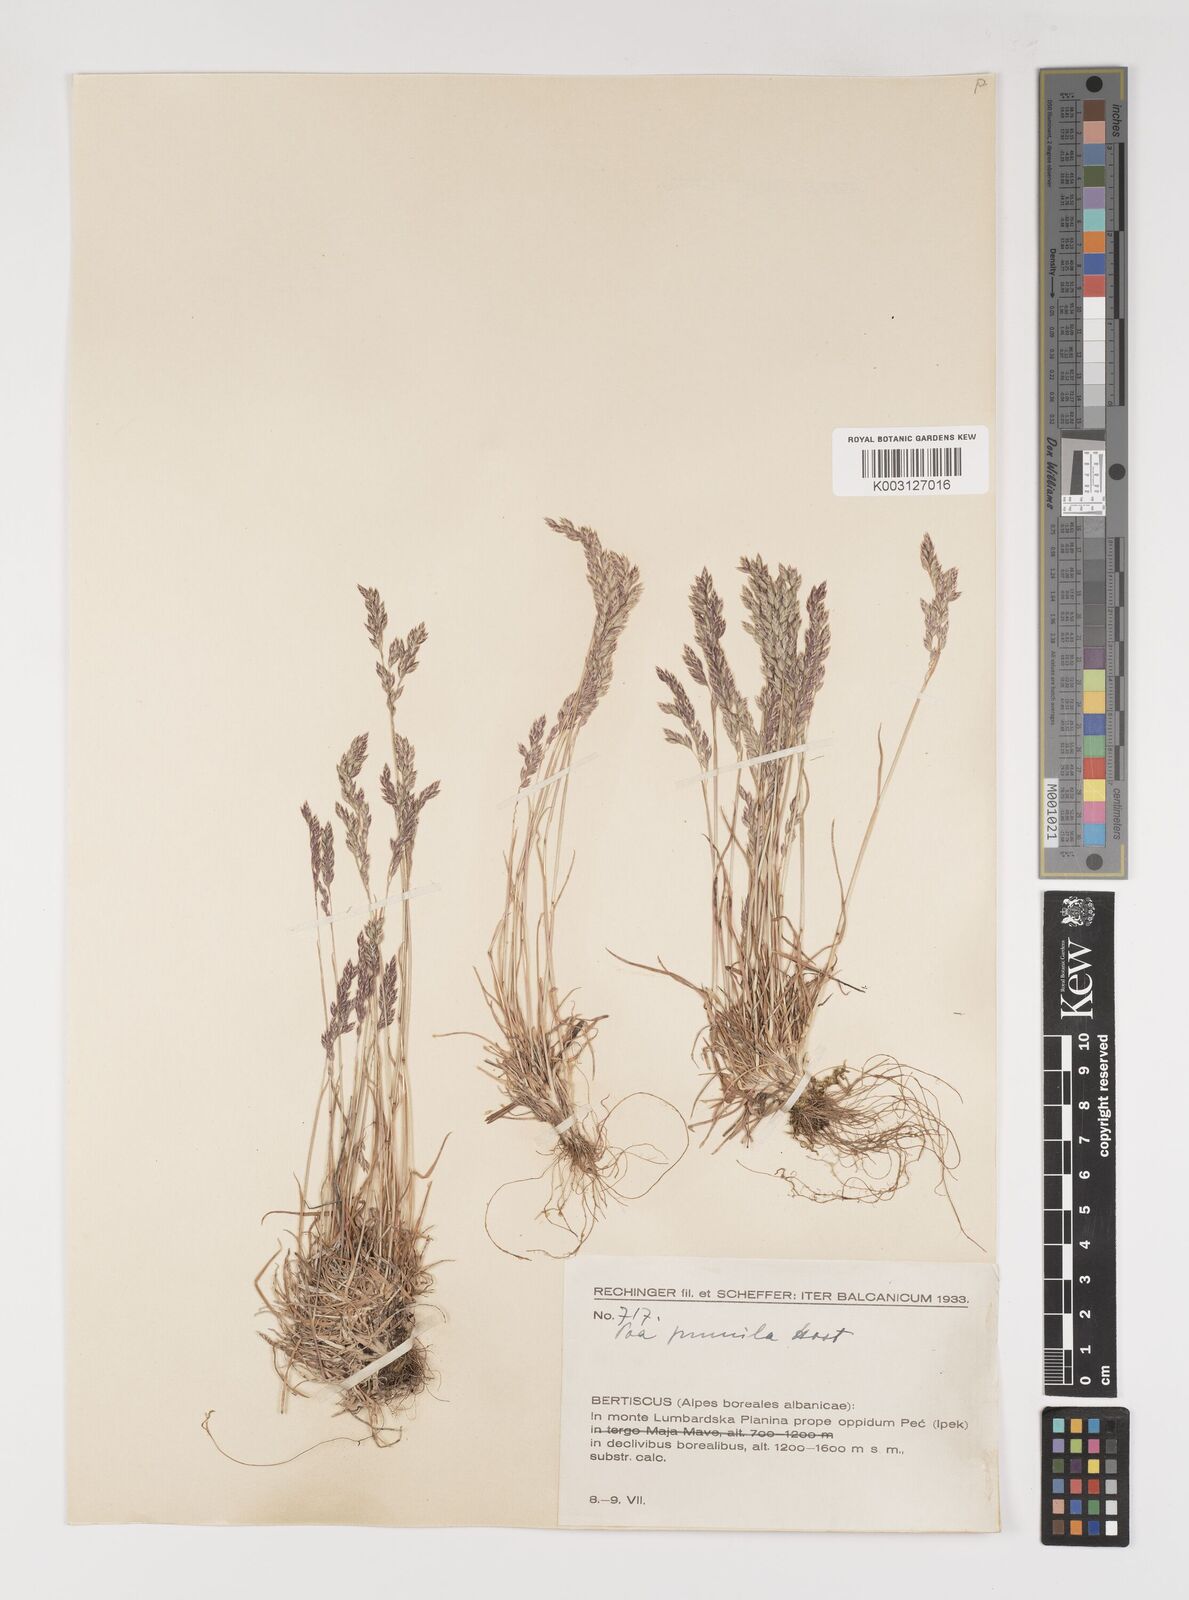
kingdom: Plantae
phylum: Tracheophyta
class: Liliopsida
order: Poales
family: Poaceae
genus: Poa
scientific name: Poa pumila
